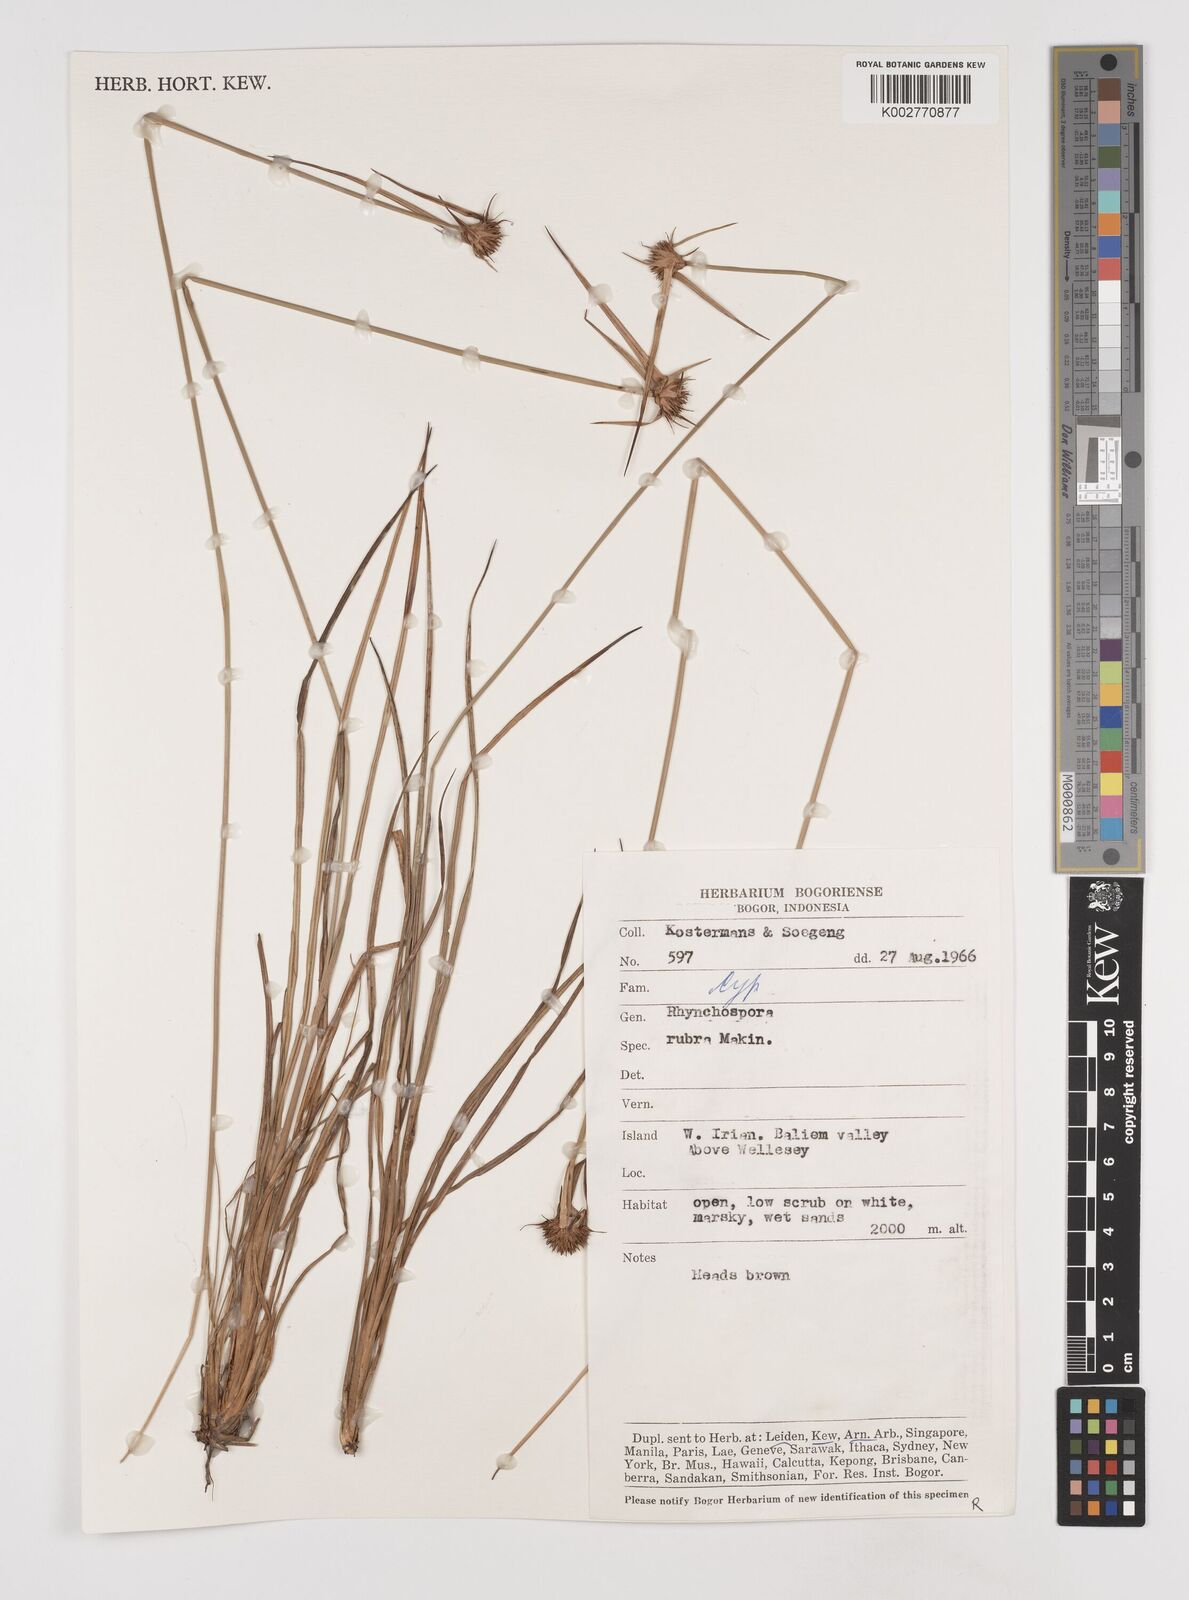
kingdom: Plantae
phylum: Tracheophyta
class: Liliopsida
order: Poales
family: Cyperaceae
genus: Rhynchospora
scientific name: Rhynchospora rubra
